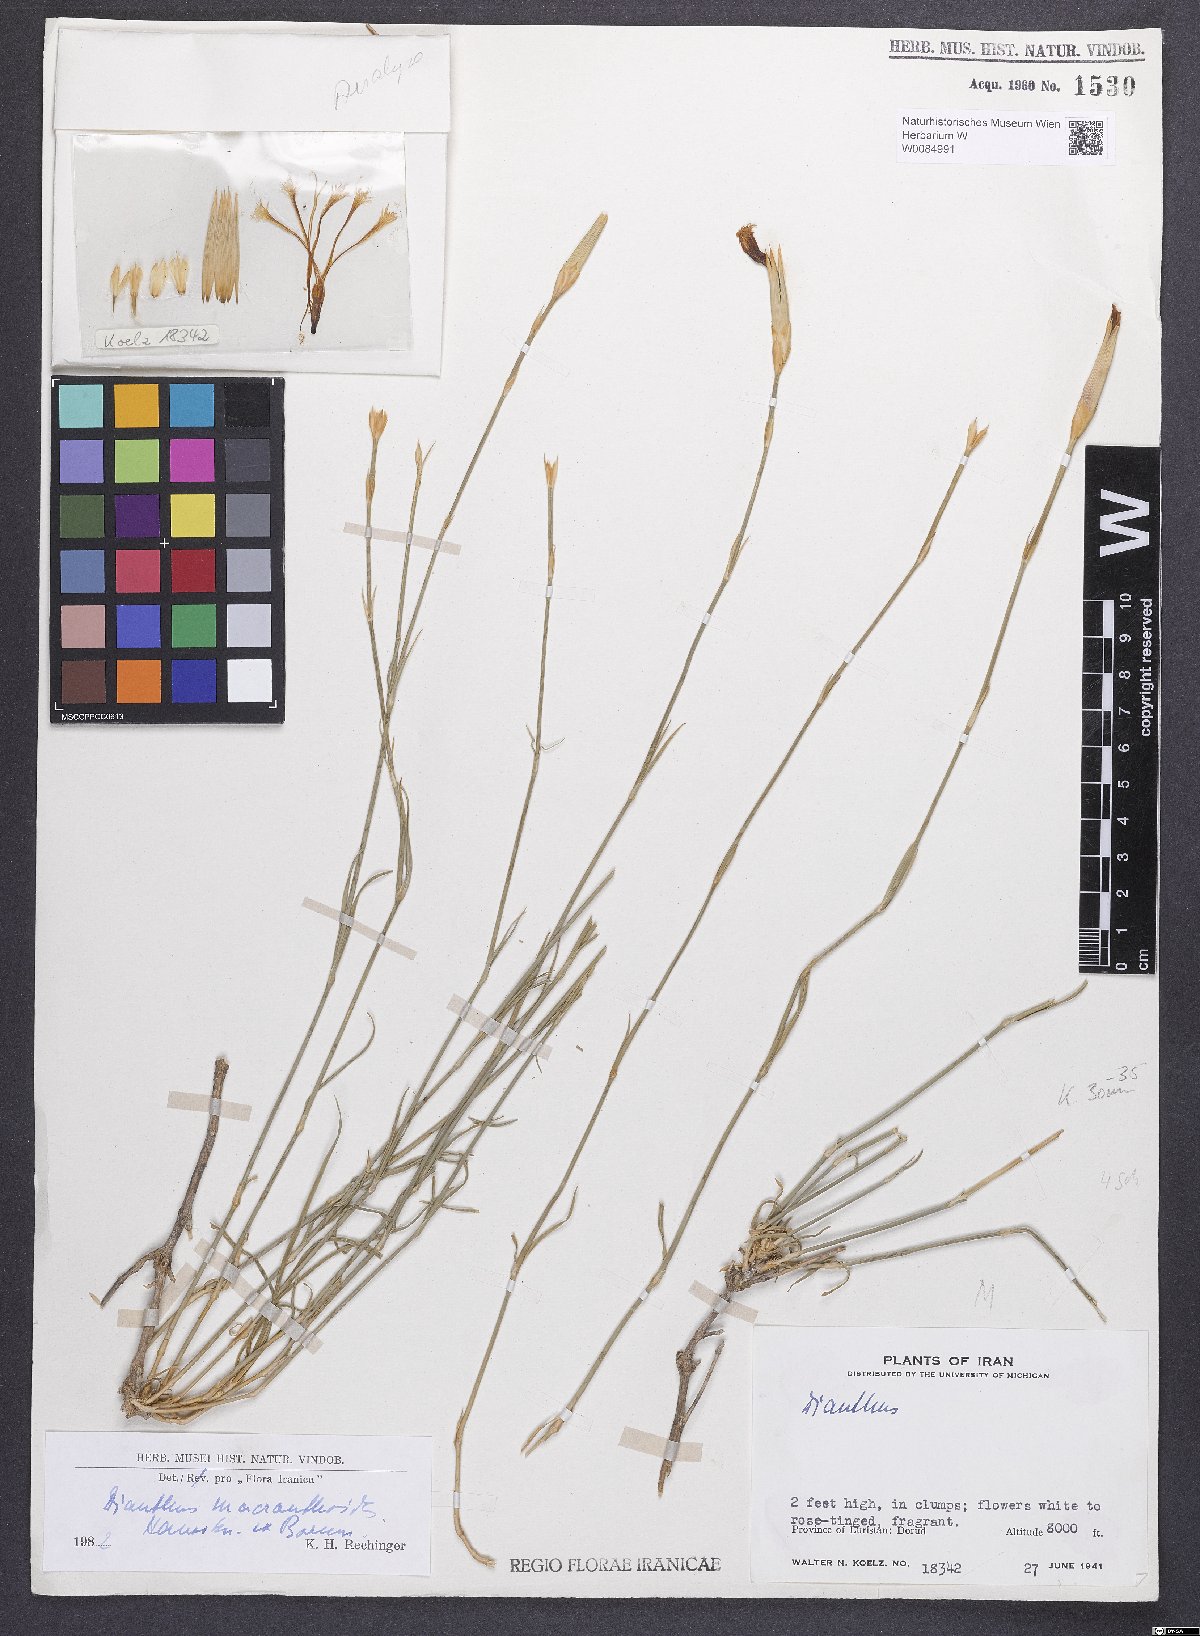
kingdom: Plantae
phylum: Tracheophyta
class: Magnoliopsida
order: Caryophyllales
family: Caryophyllaceae
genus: Dianthus
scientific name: Dianthus macranthoides
